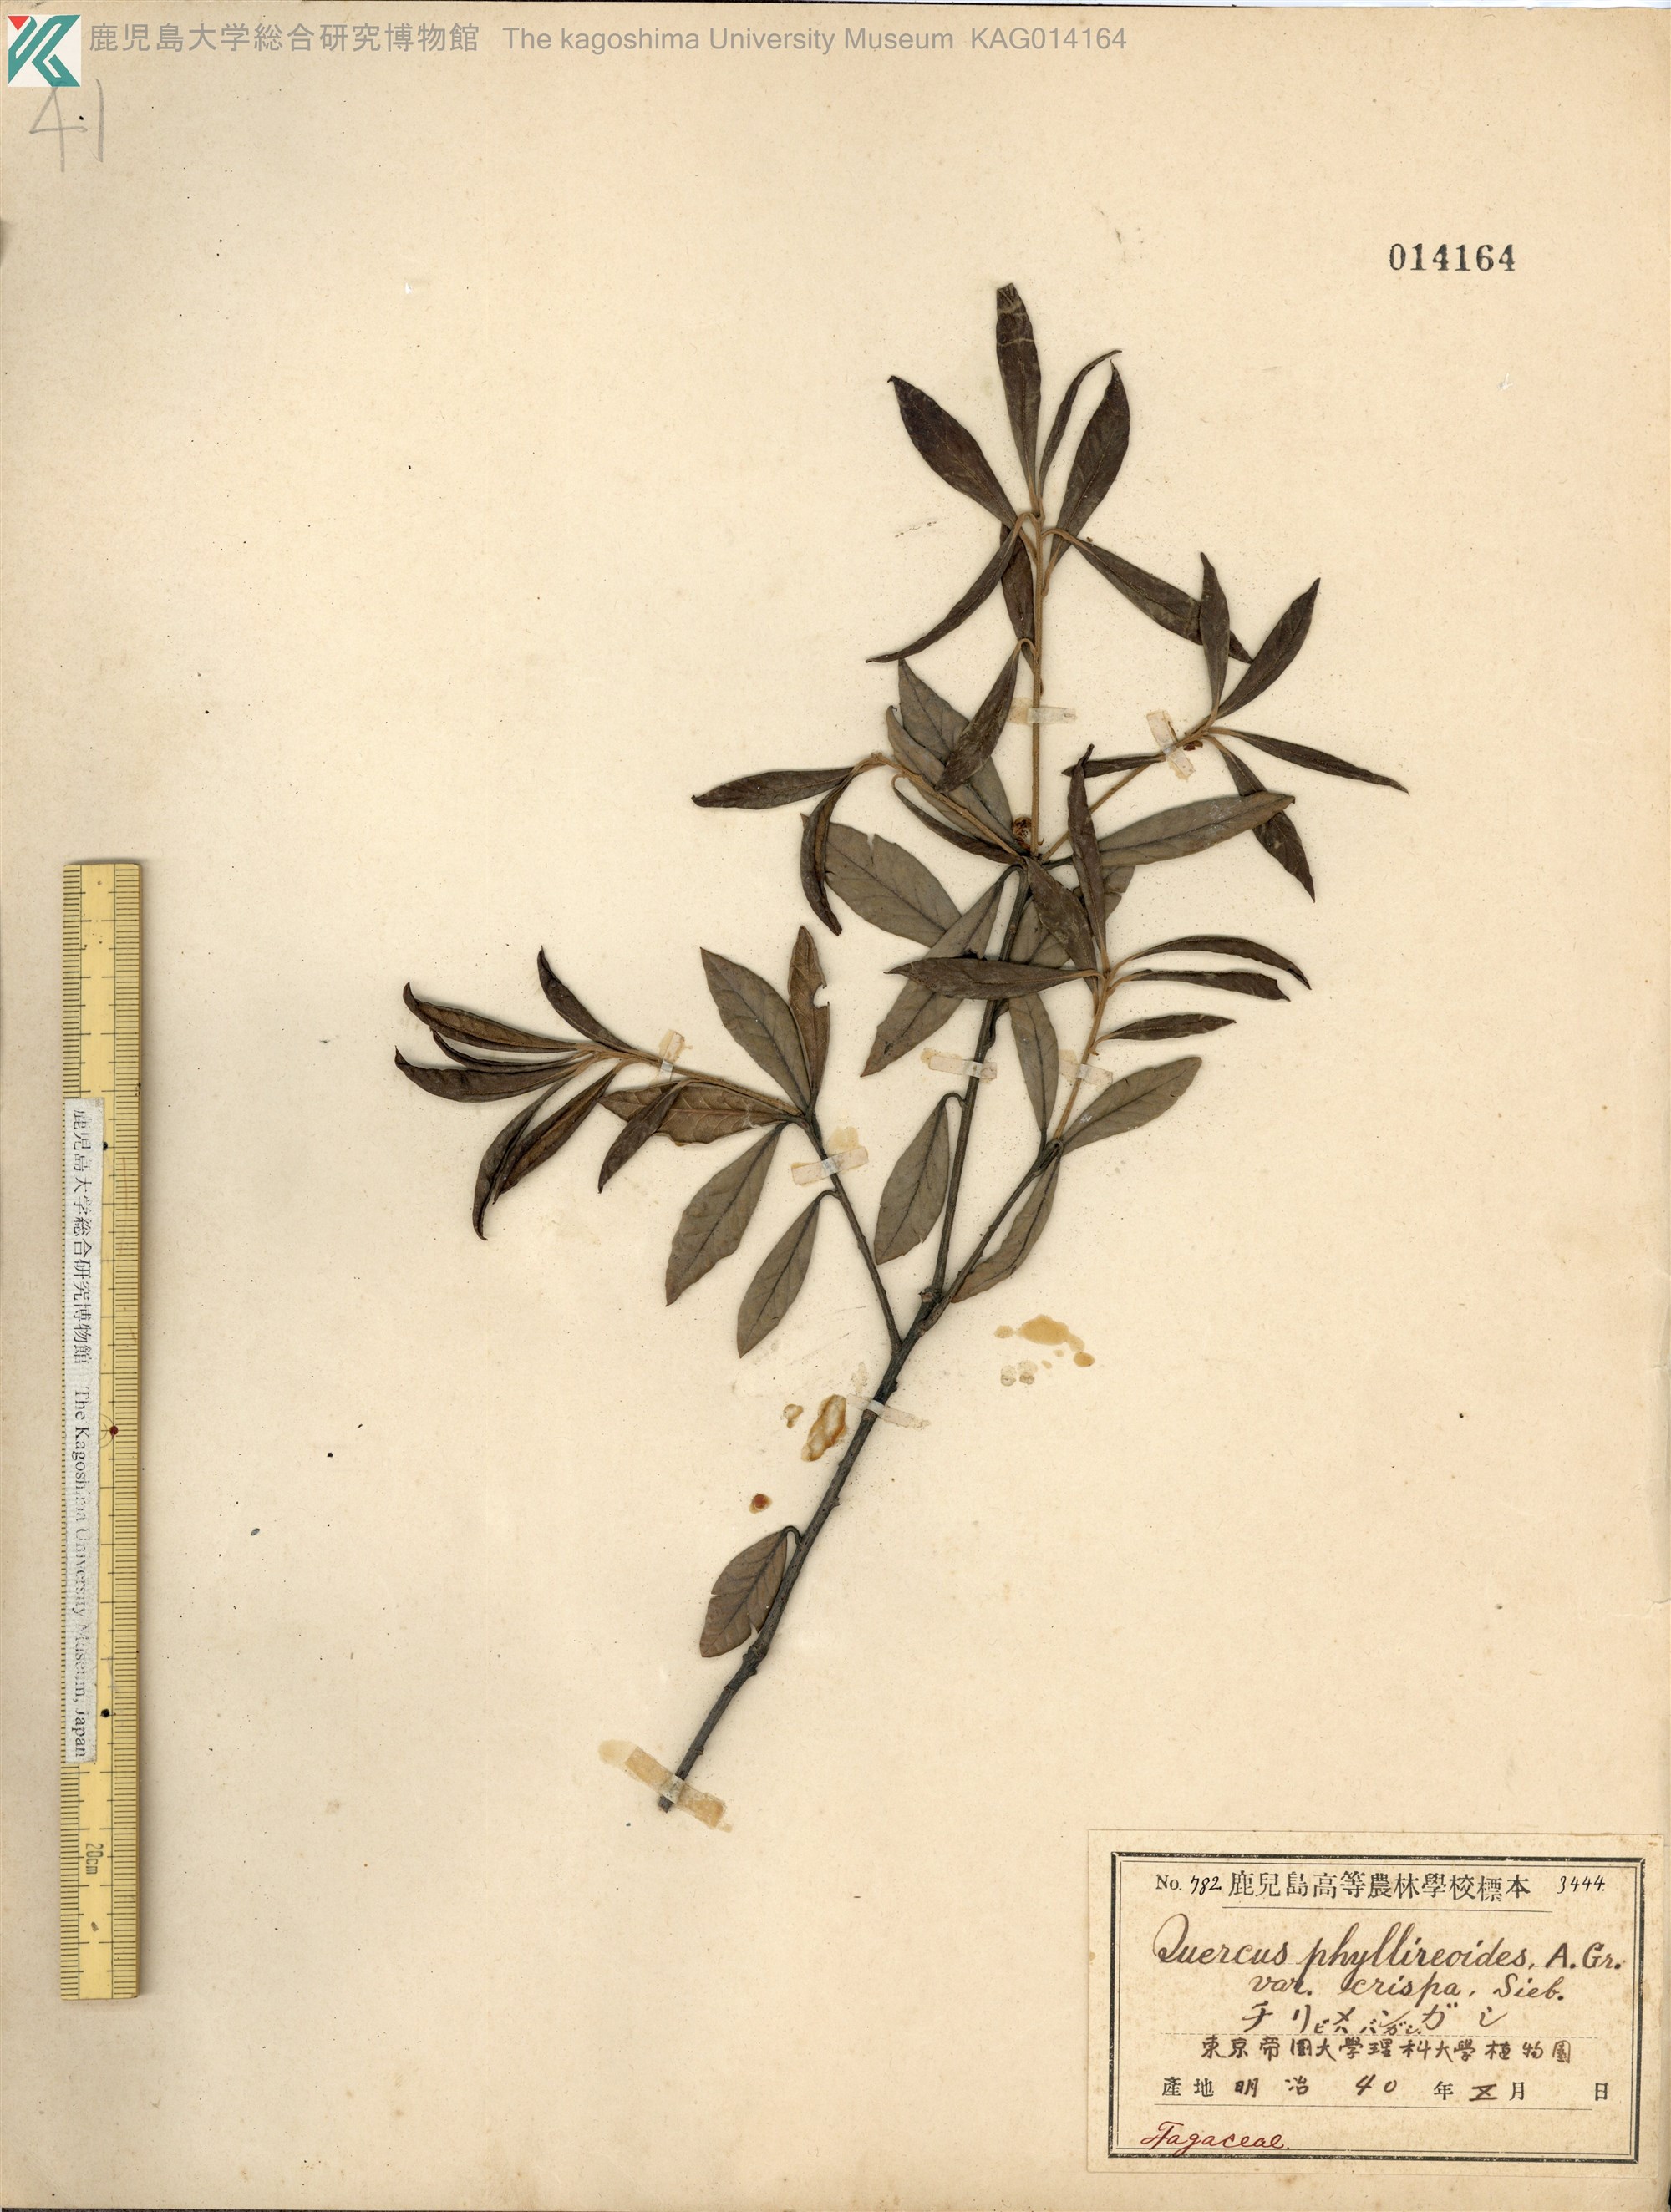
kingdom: Plantae
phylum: Tracheophyta
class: Magnoliopsida
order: Fagales
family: Fagaceae
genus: Quercus
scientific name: Quercus phillyreoides
